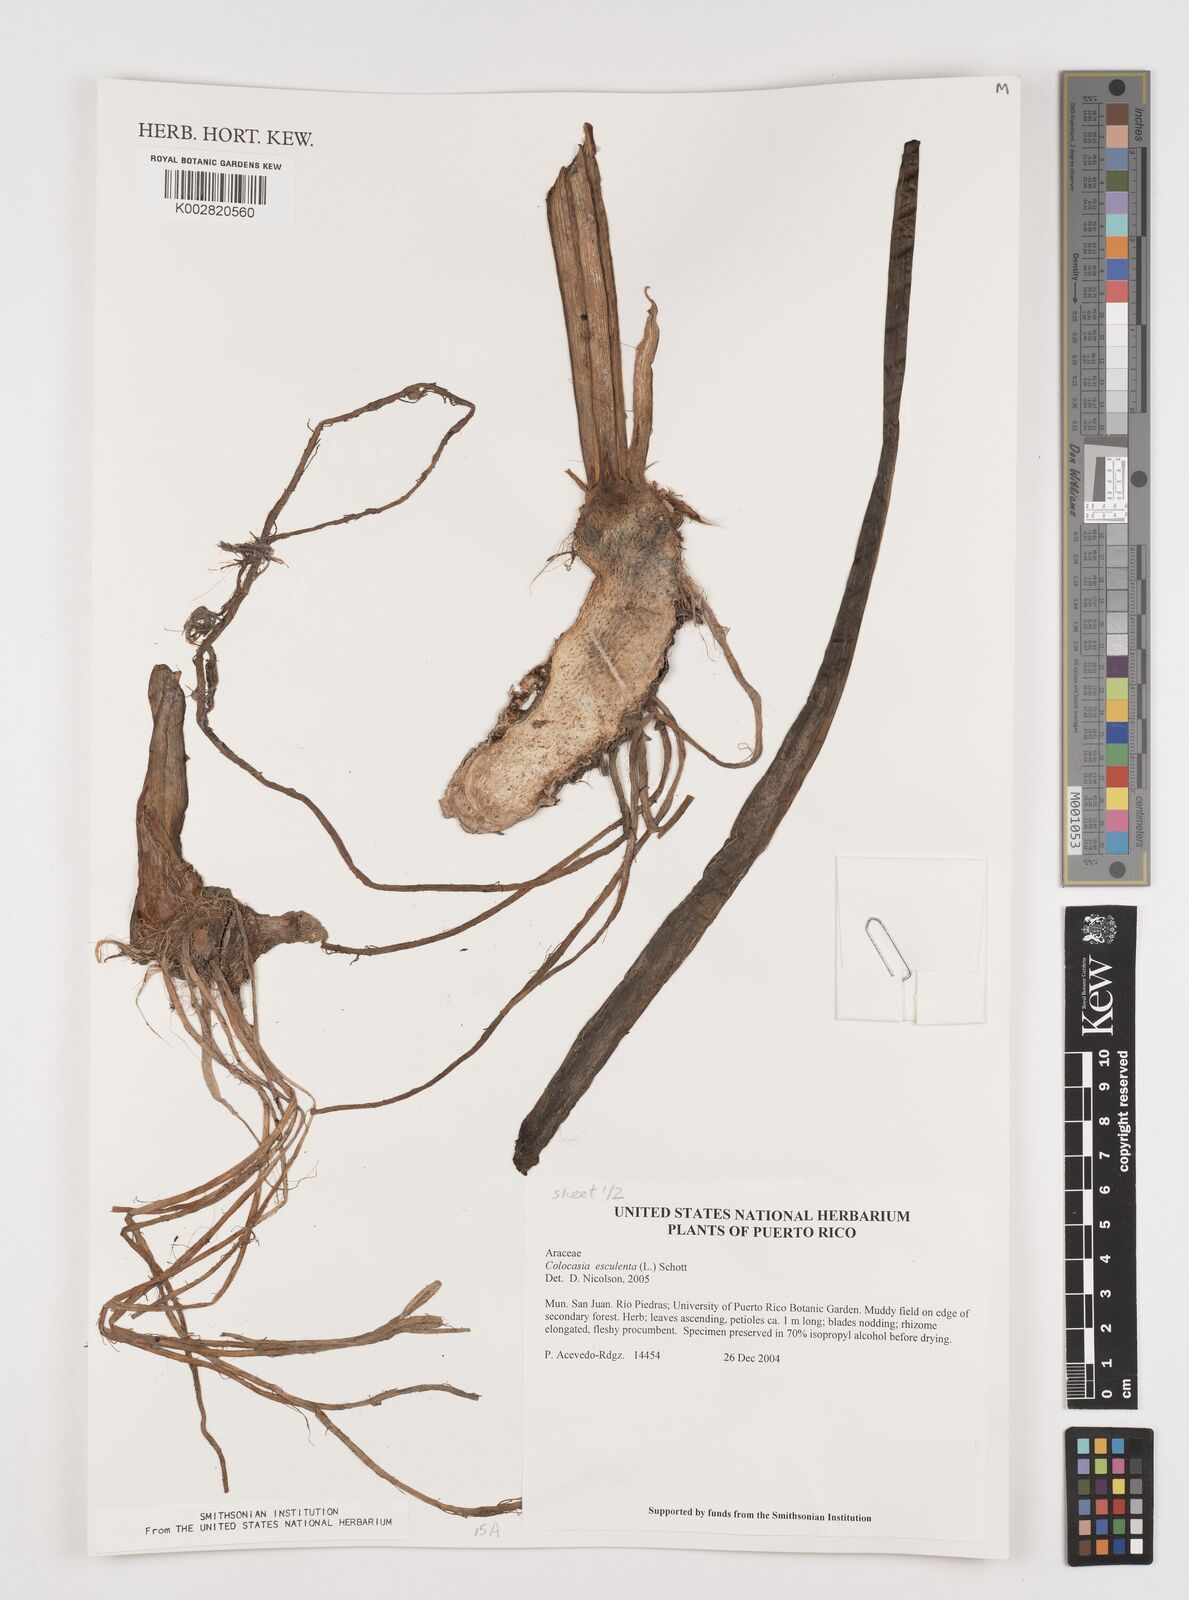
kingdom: Plantae
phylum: Tracheophyta
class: Liliopsida
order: Alismatales
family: Araceae
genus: Colocasia
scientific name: Colocasia esculenta
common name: Taro
